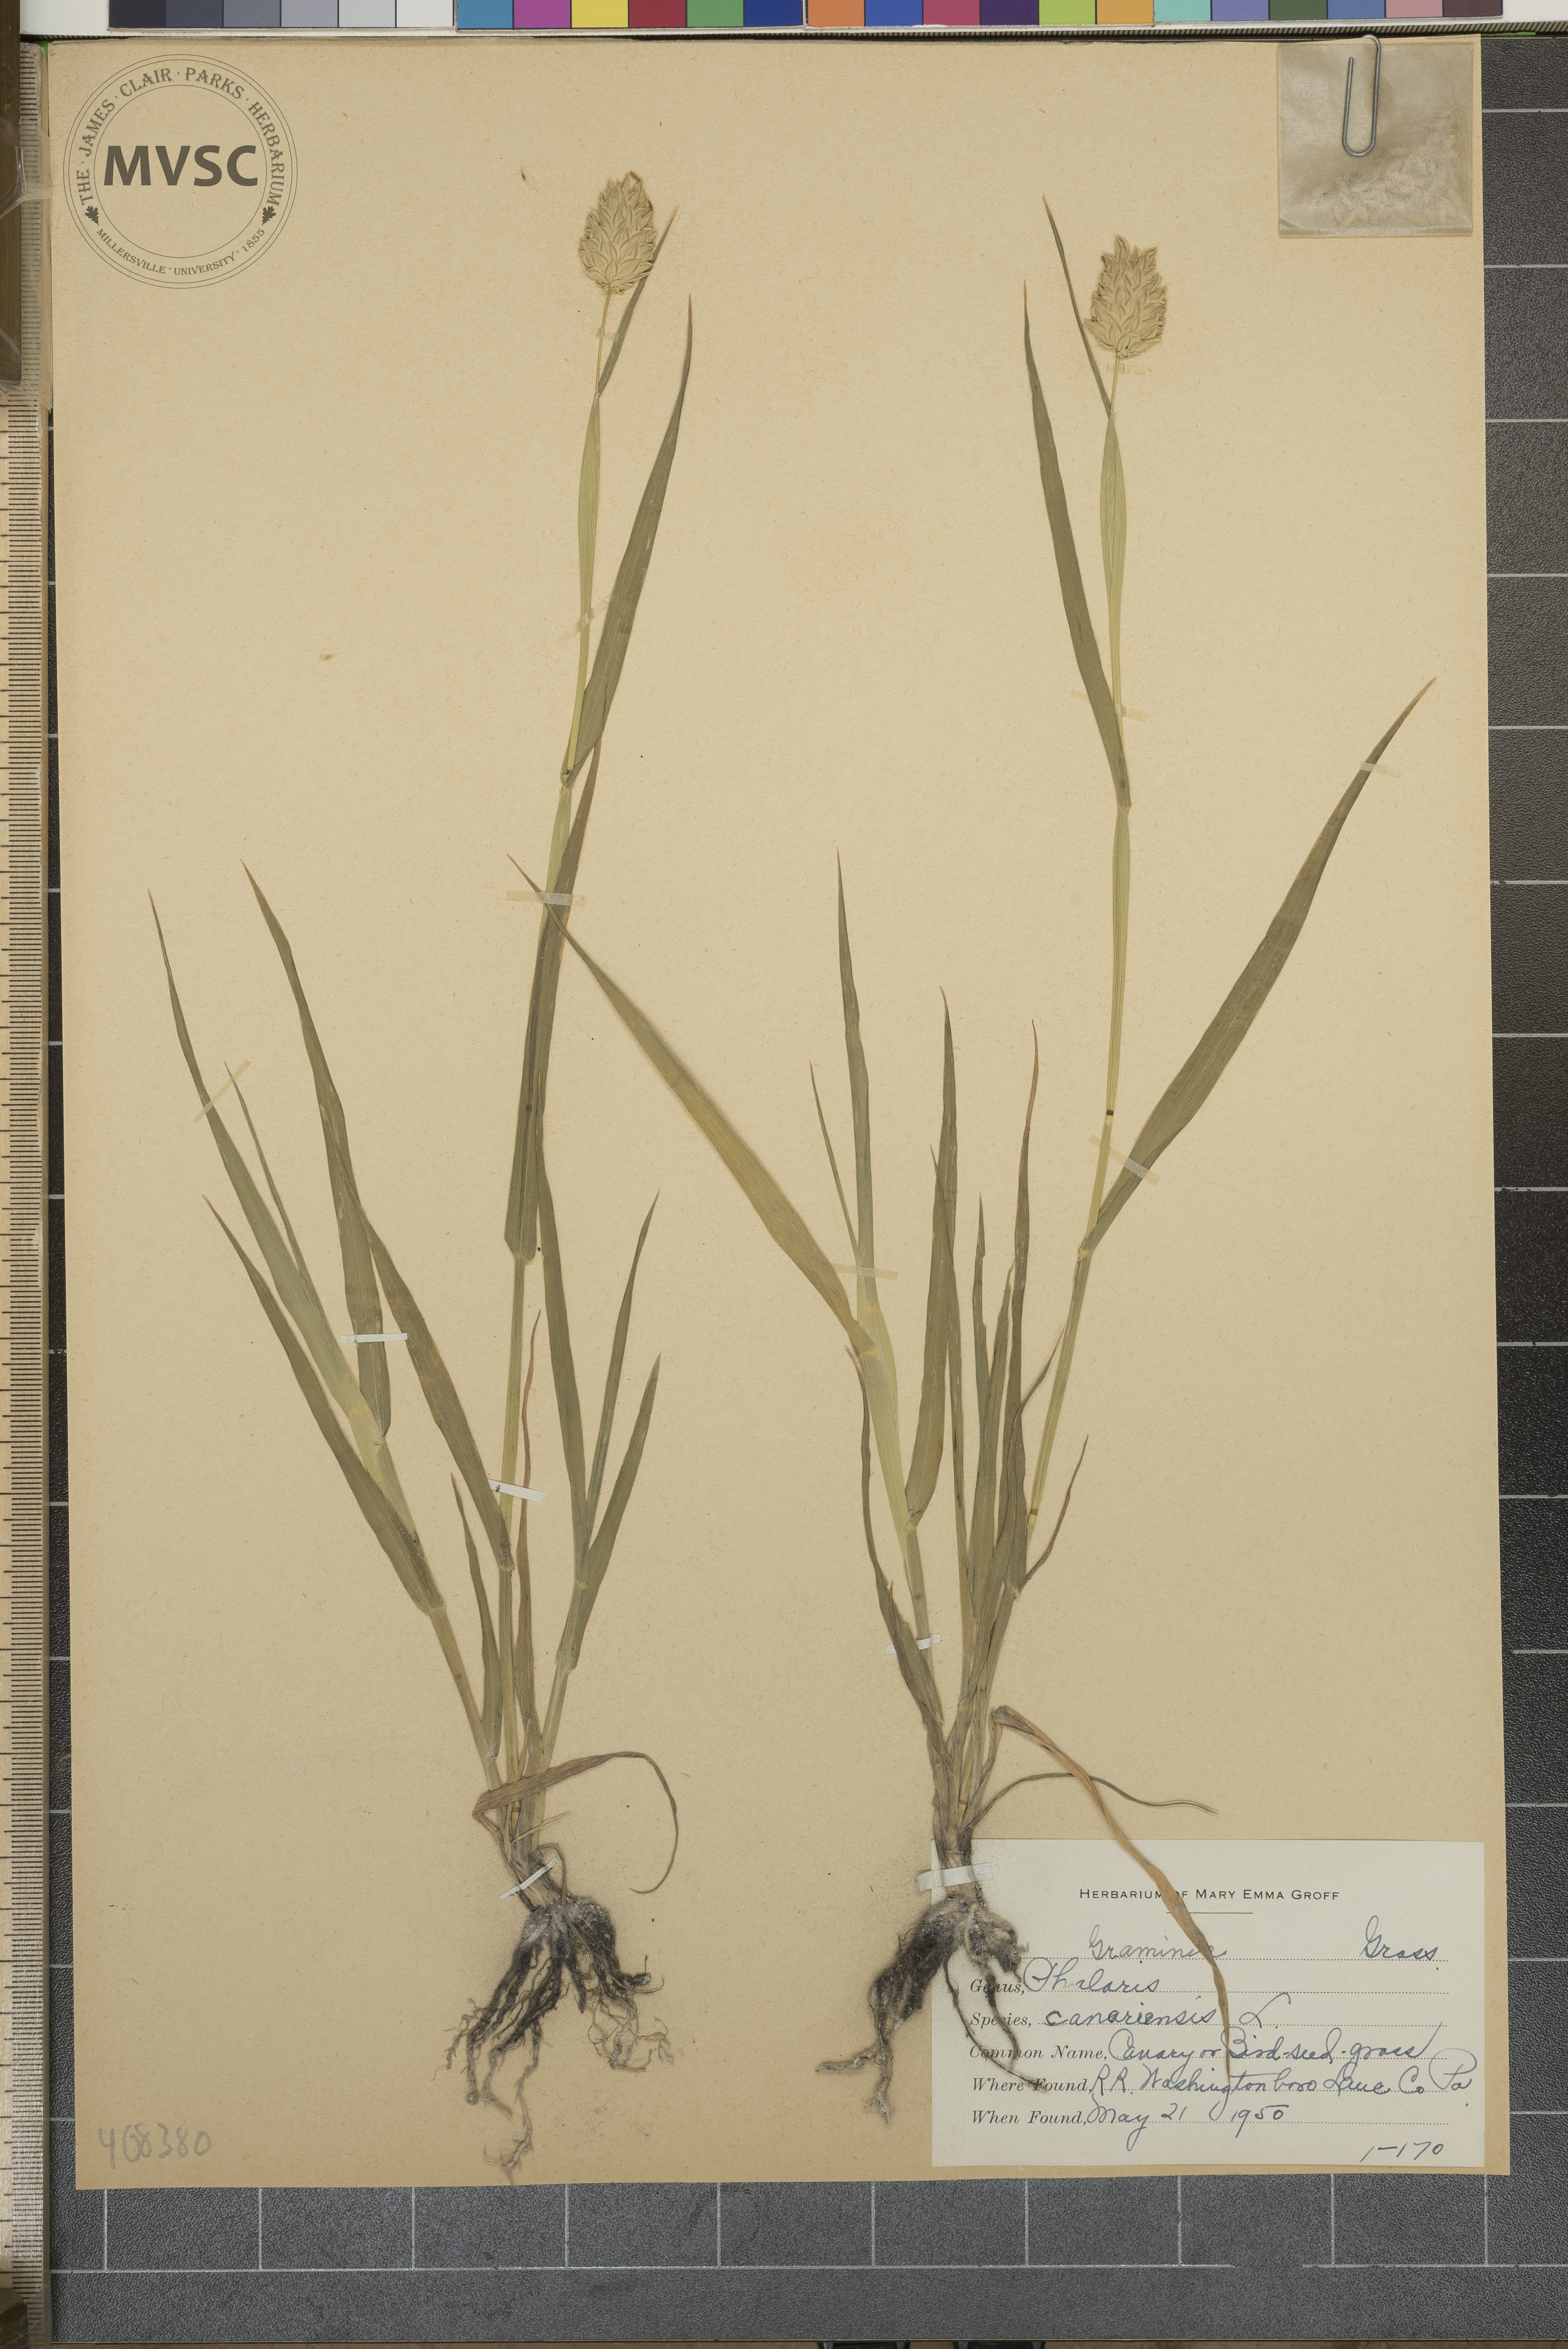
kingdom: Plantae
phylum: Tracheophyta
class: Liliopsida
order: Poales
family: Poaceae
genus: Phalaris
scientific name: Phalaris canariensis
